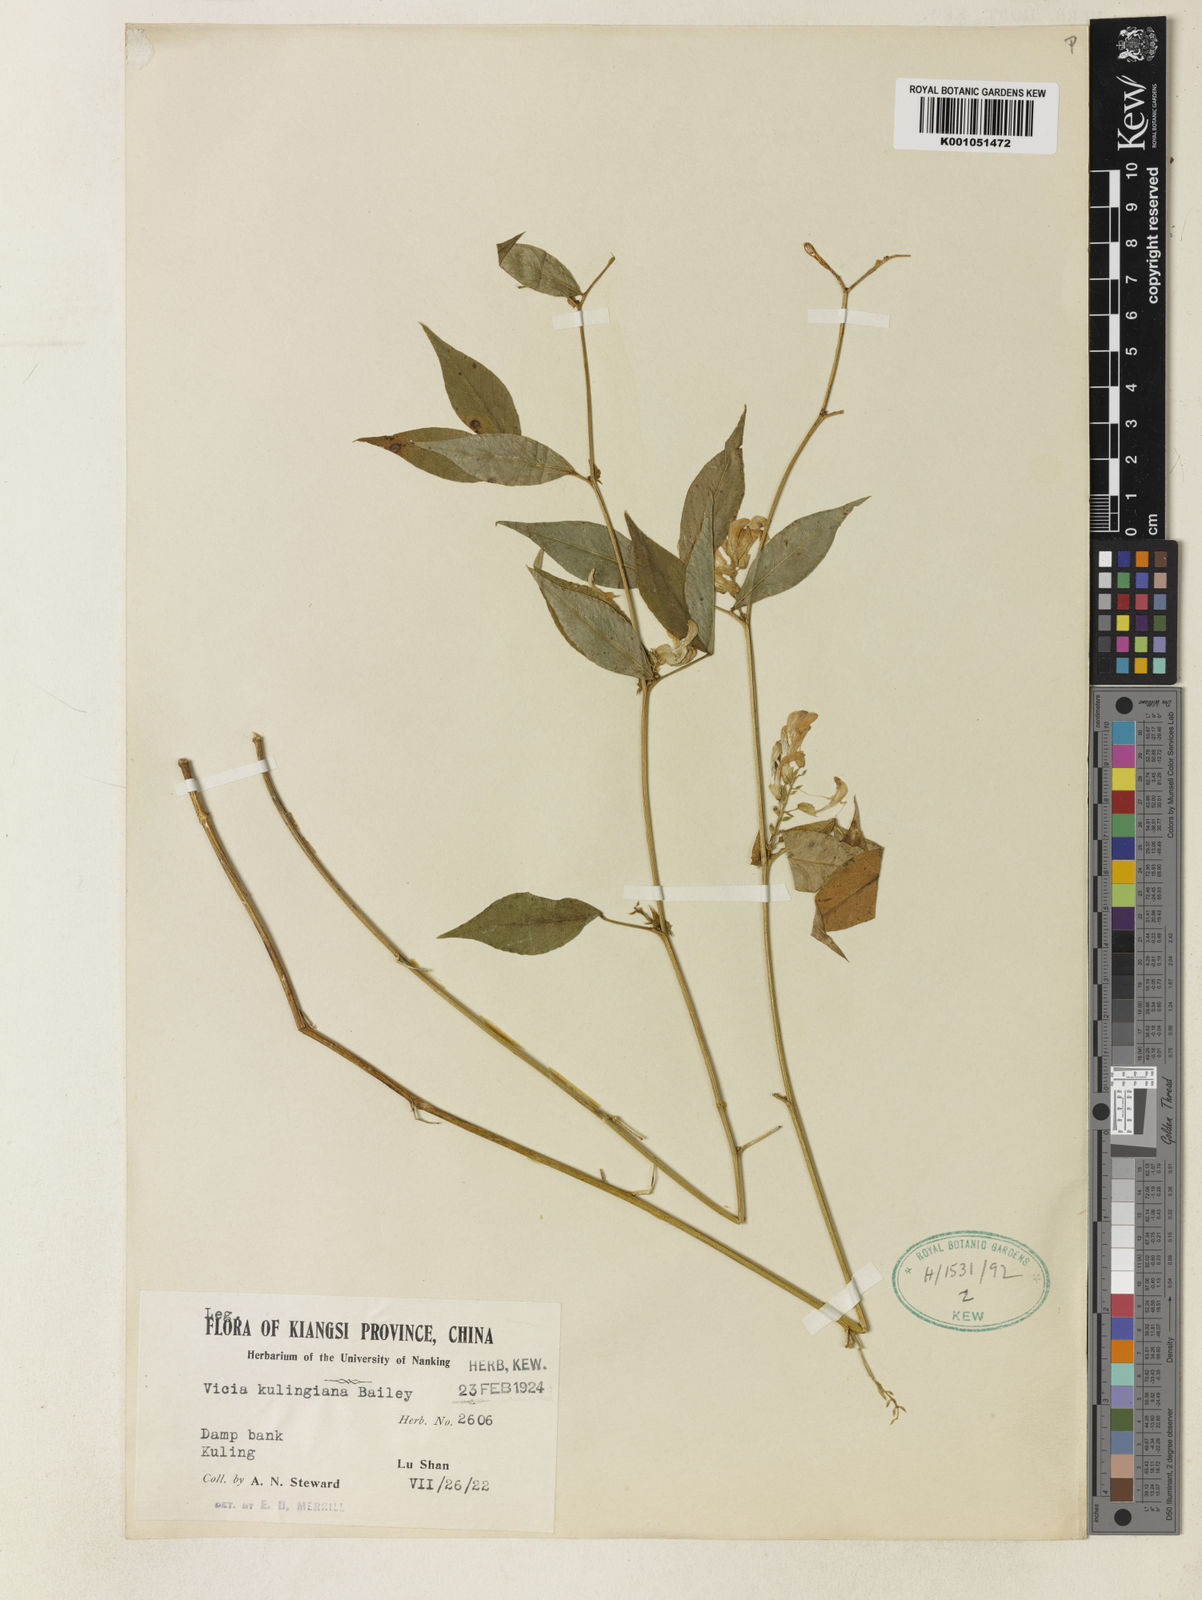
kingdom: Plantae
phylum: Tracheophyta
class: Magnoliopsida
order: Fabales
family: Fabaceae
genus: Vicia
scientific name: Vicia kulingana
